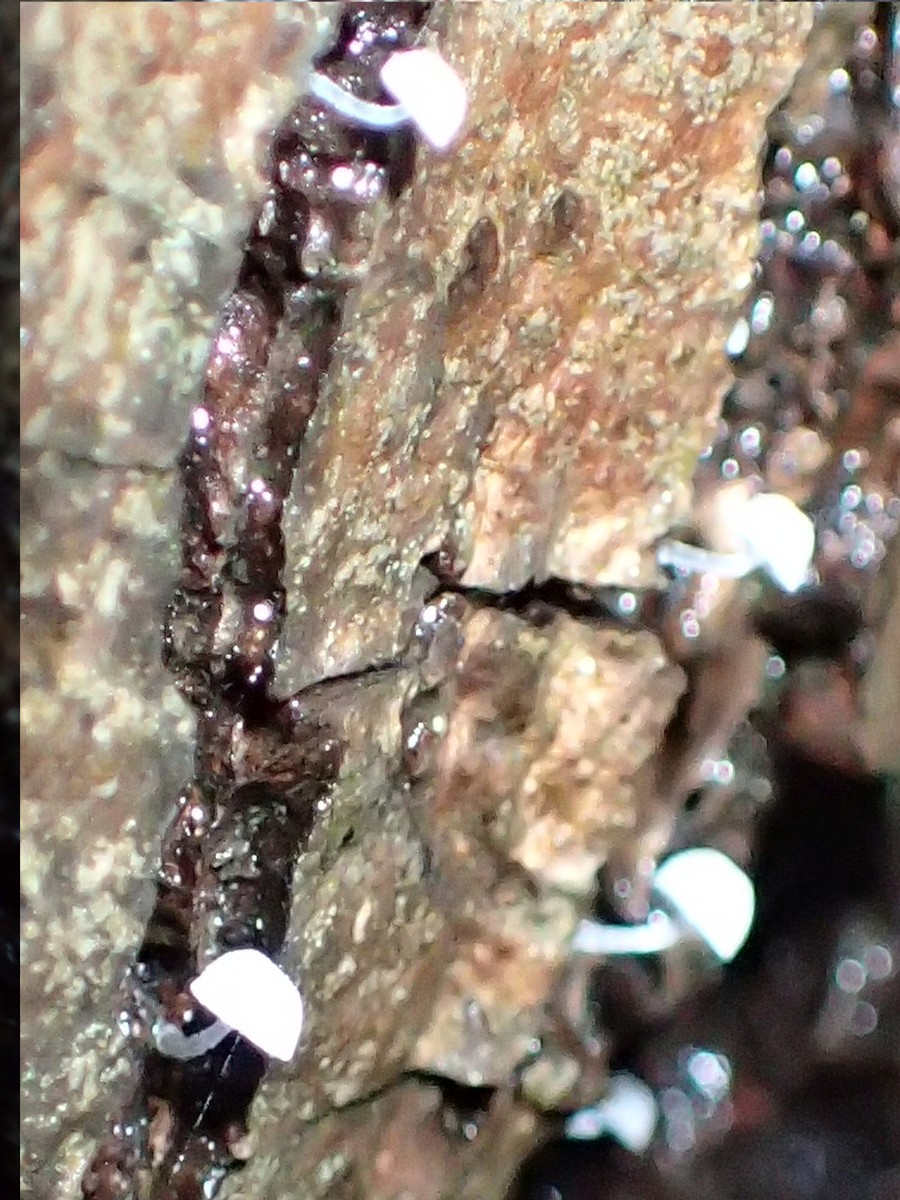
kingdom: Fungi
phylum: Basidiomycota
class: Agaricomycetes
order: Agaricales
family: Mycenaceae
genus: Mycena
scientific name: Mycena
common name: huesvamp
